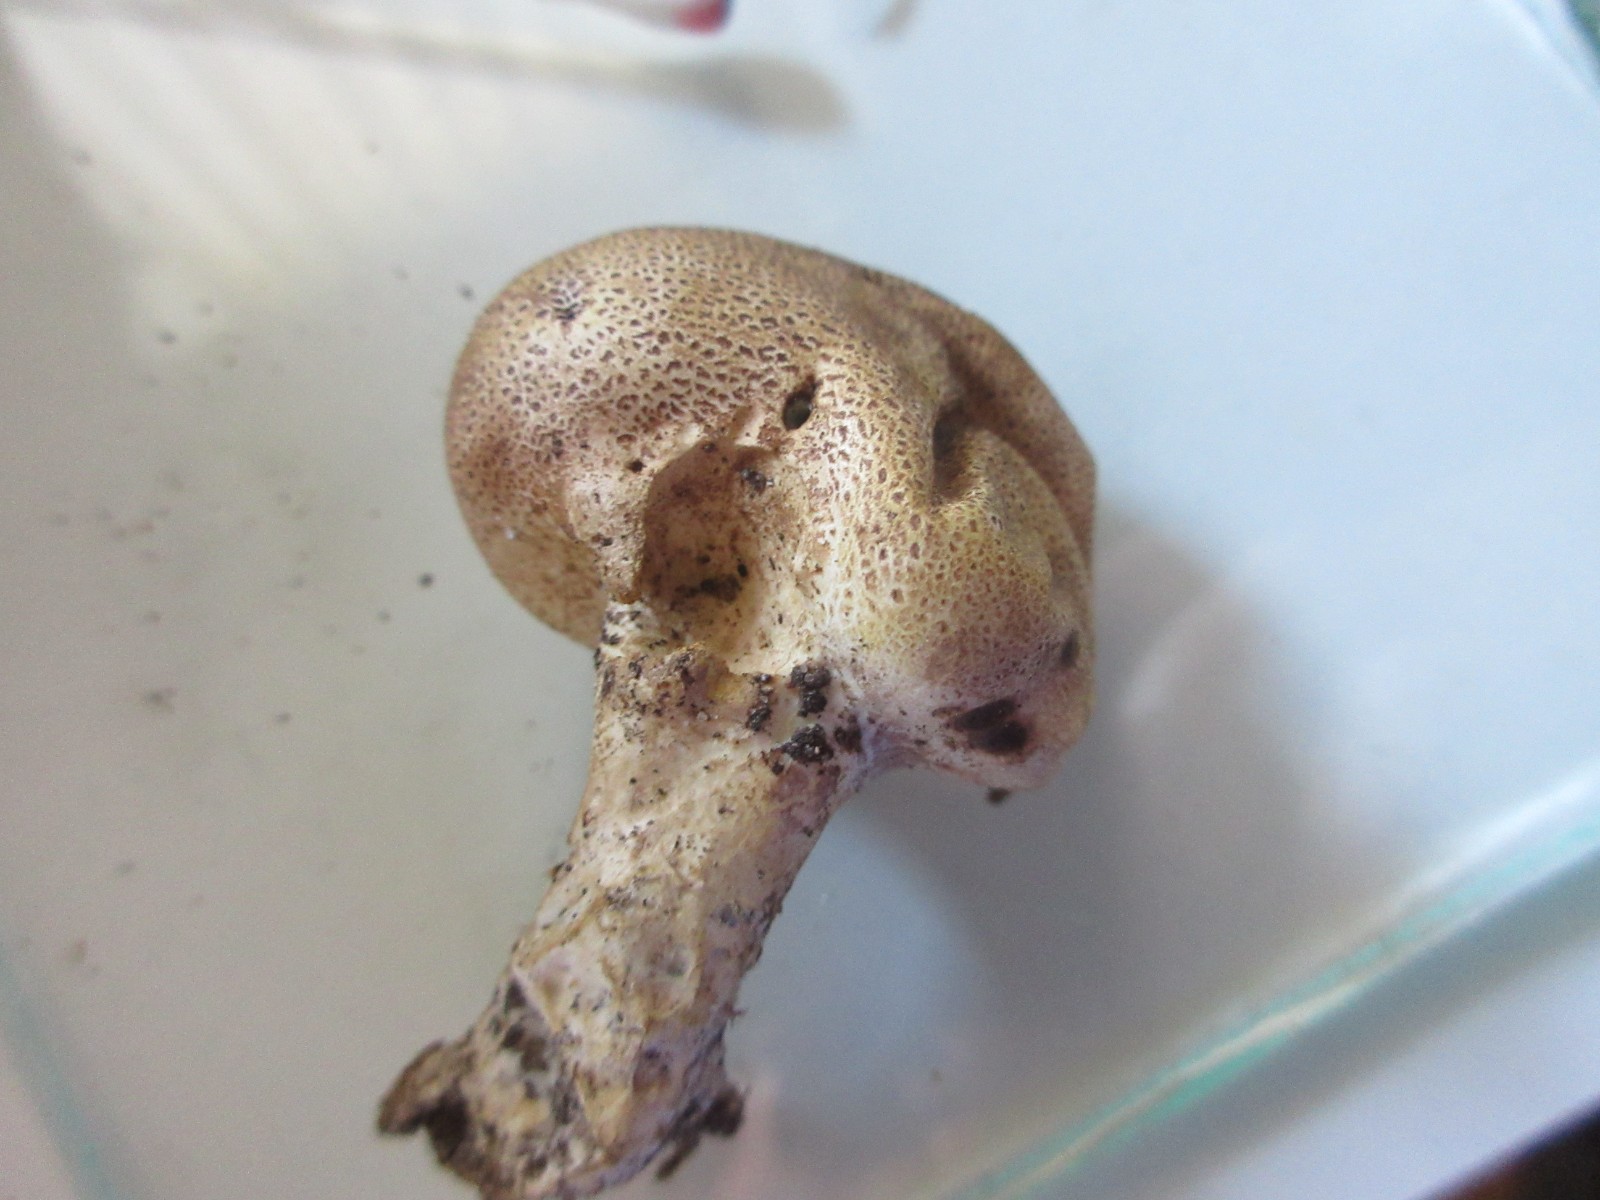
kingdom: Fungi
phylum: Basidiomycota
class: Agaricomycetes
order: Boletales
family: Sclerodermataceae
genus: Scleroderma
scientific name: Scleroderma verrucosum
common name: stilket bruskbold
